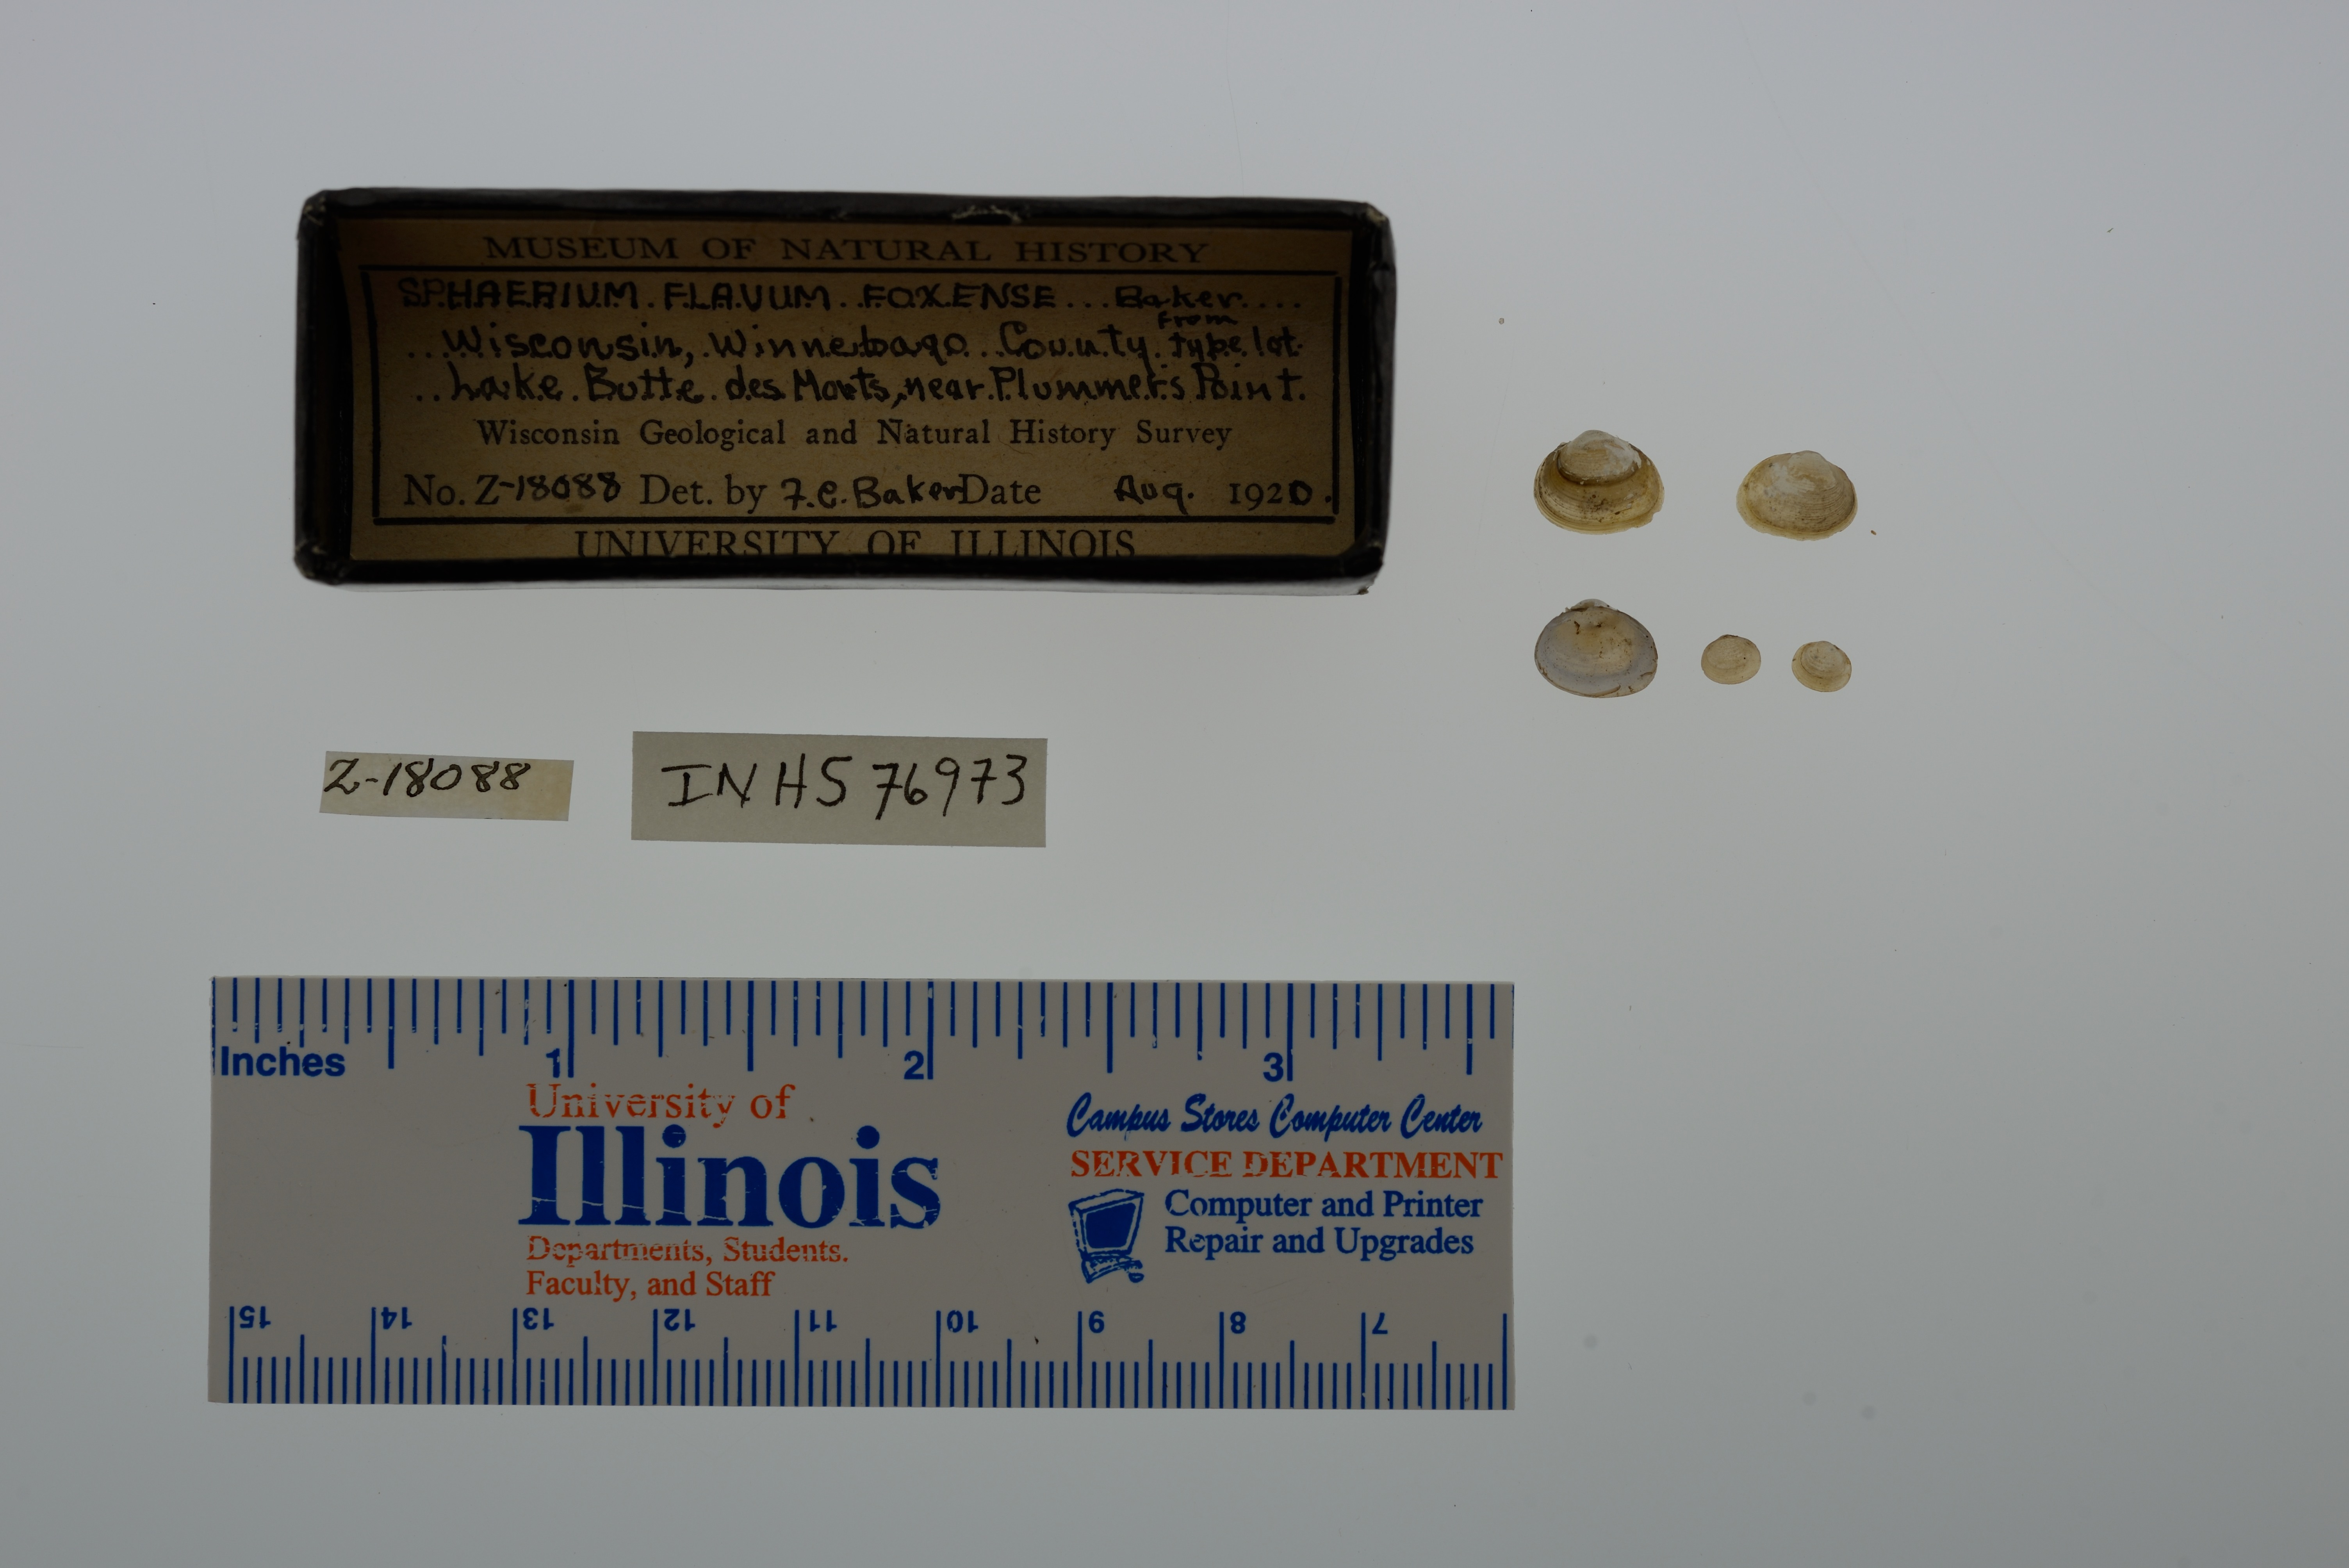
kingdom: Animalia
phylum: Mollusca
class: Bivalvia
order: Sphaeriida
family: Sphaeriidae
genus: Sphaerium
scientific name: Sphaerium striatinum
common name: Striated fingernailclam
